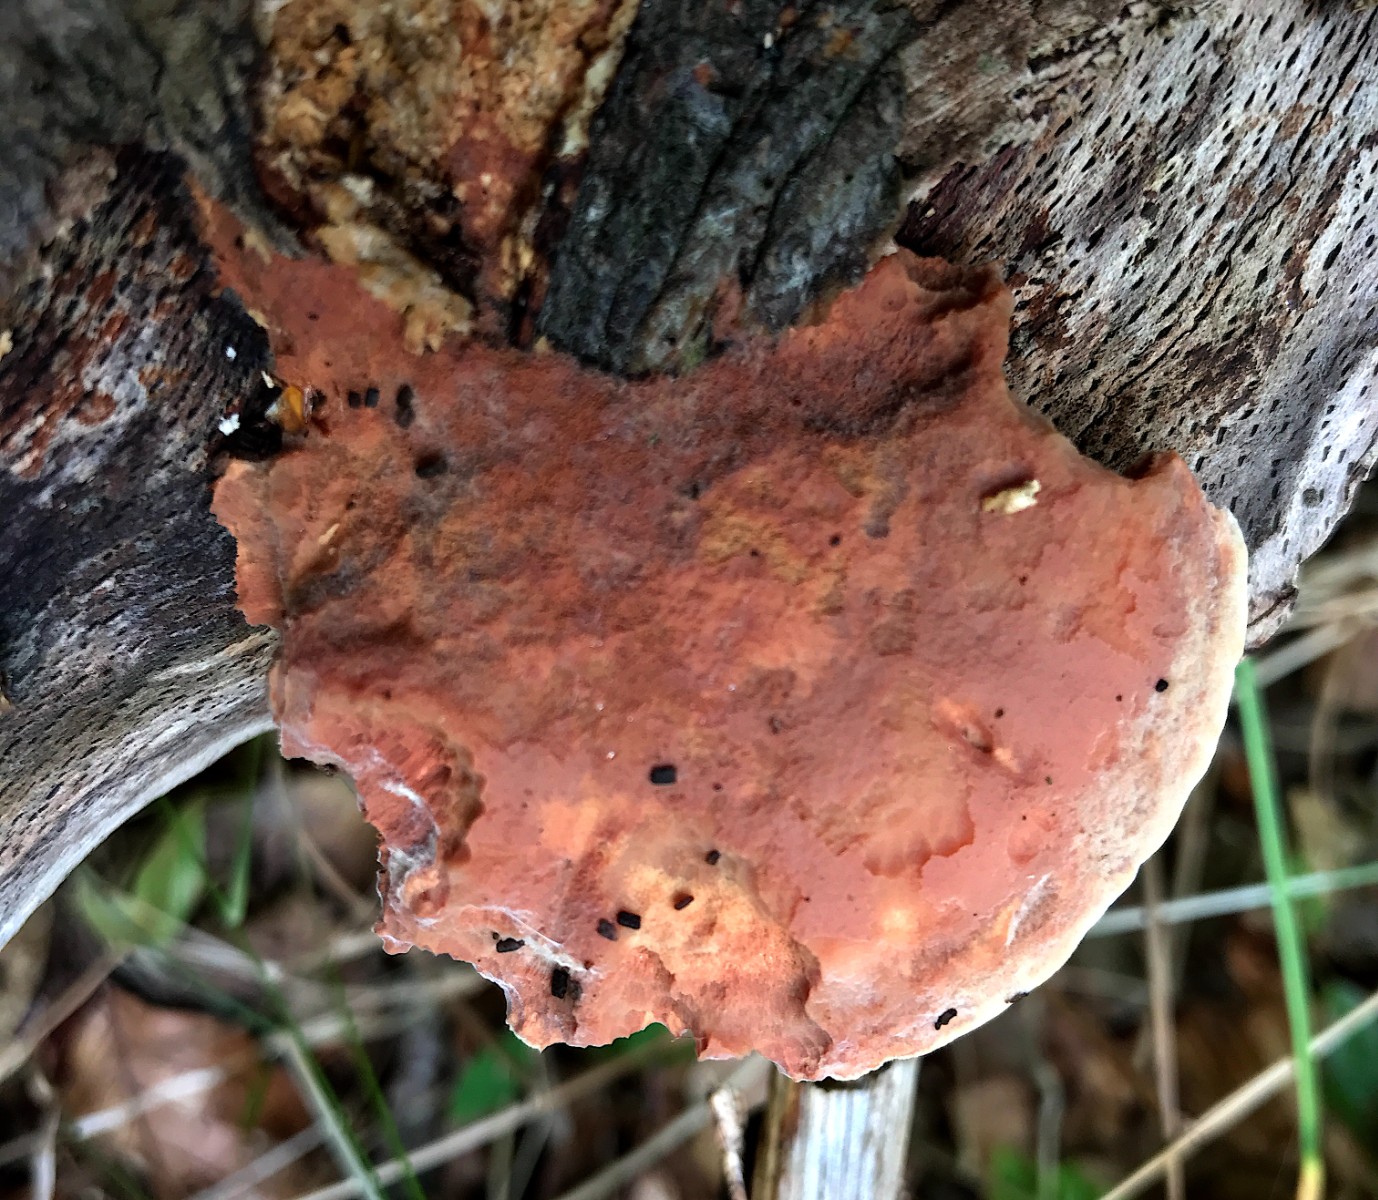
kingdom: Fungi
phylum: Basidiomycota
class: Agaricomycetes
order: Polyporales
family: Phanerochaetaceae
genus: Hapalopilus
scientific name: Hapalopilus rutilans
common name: rødlig okkerporesvamp
